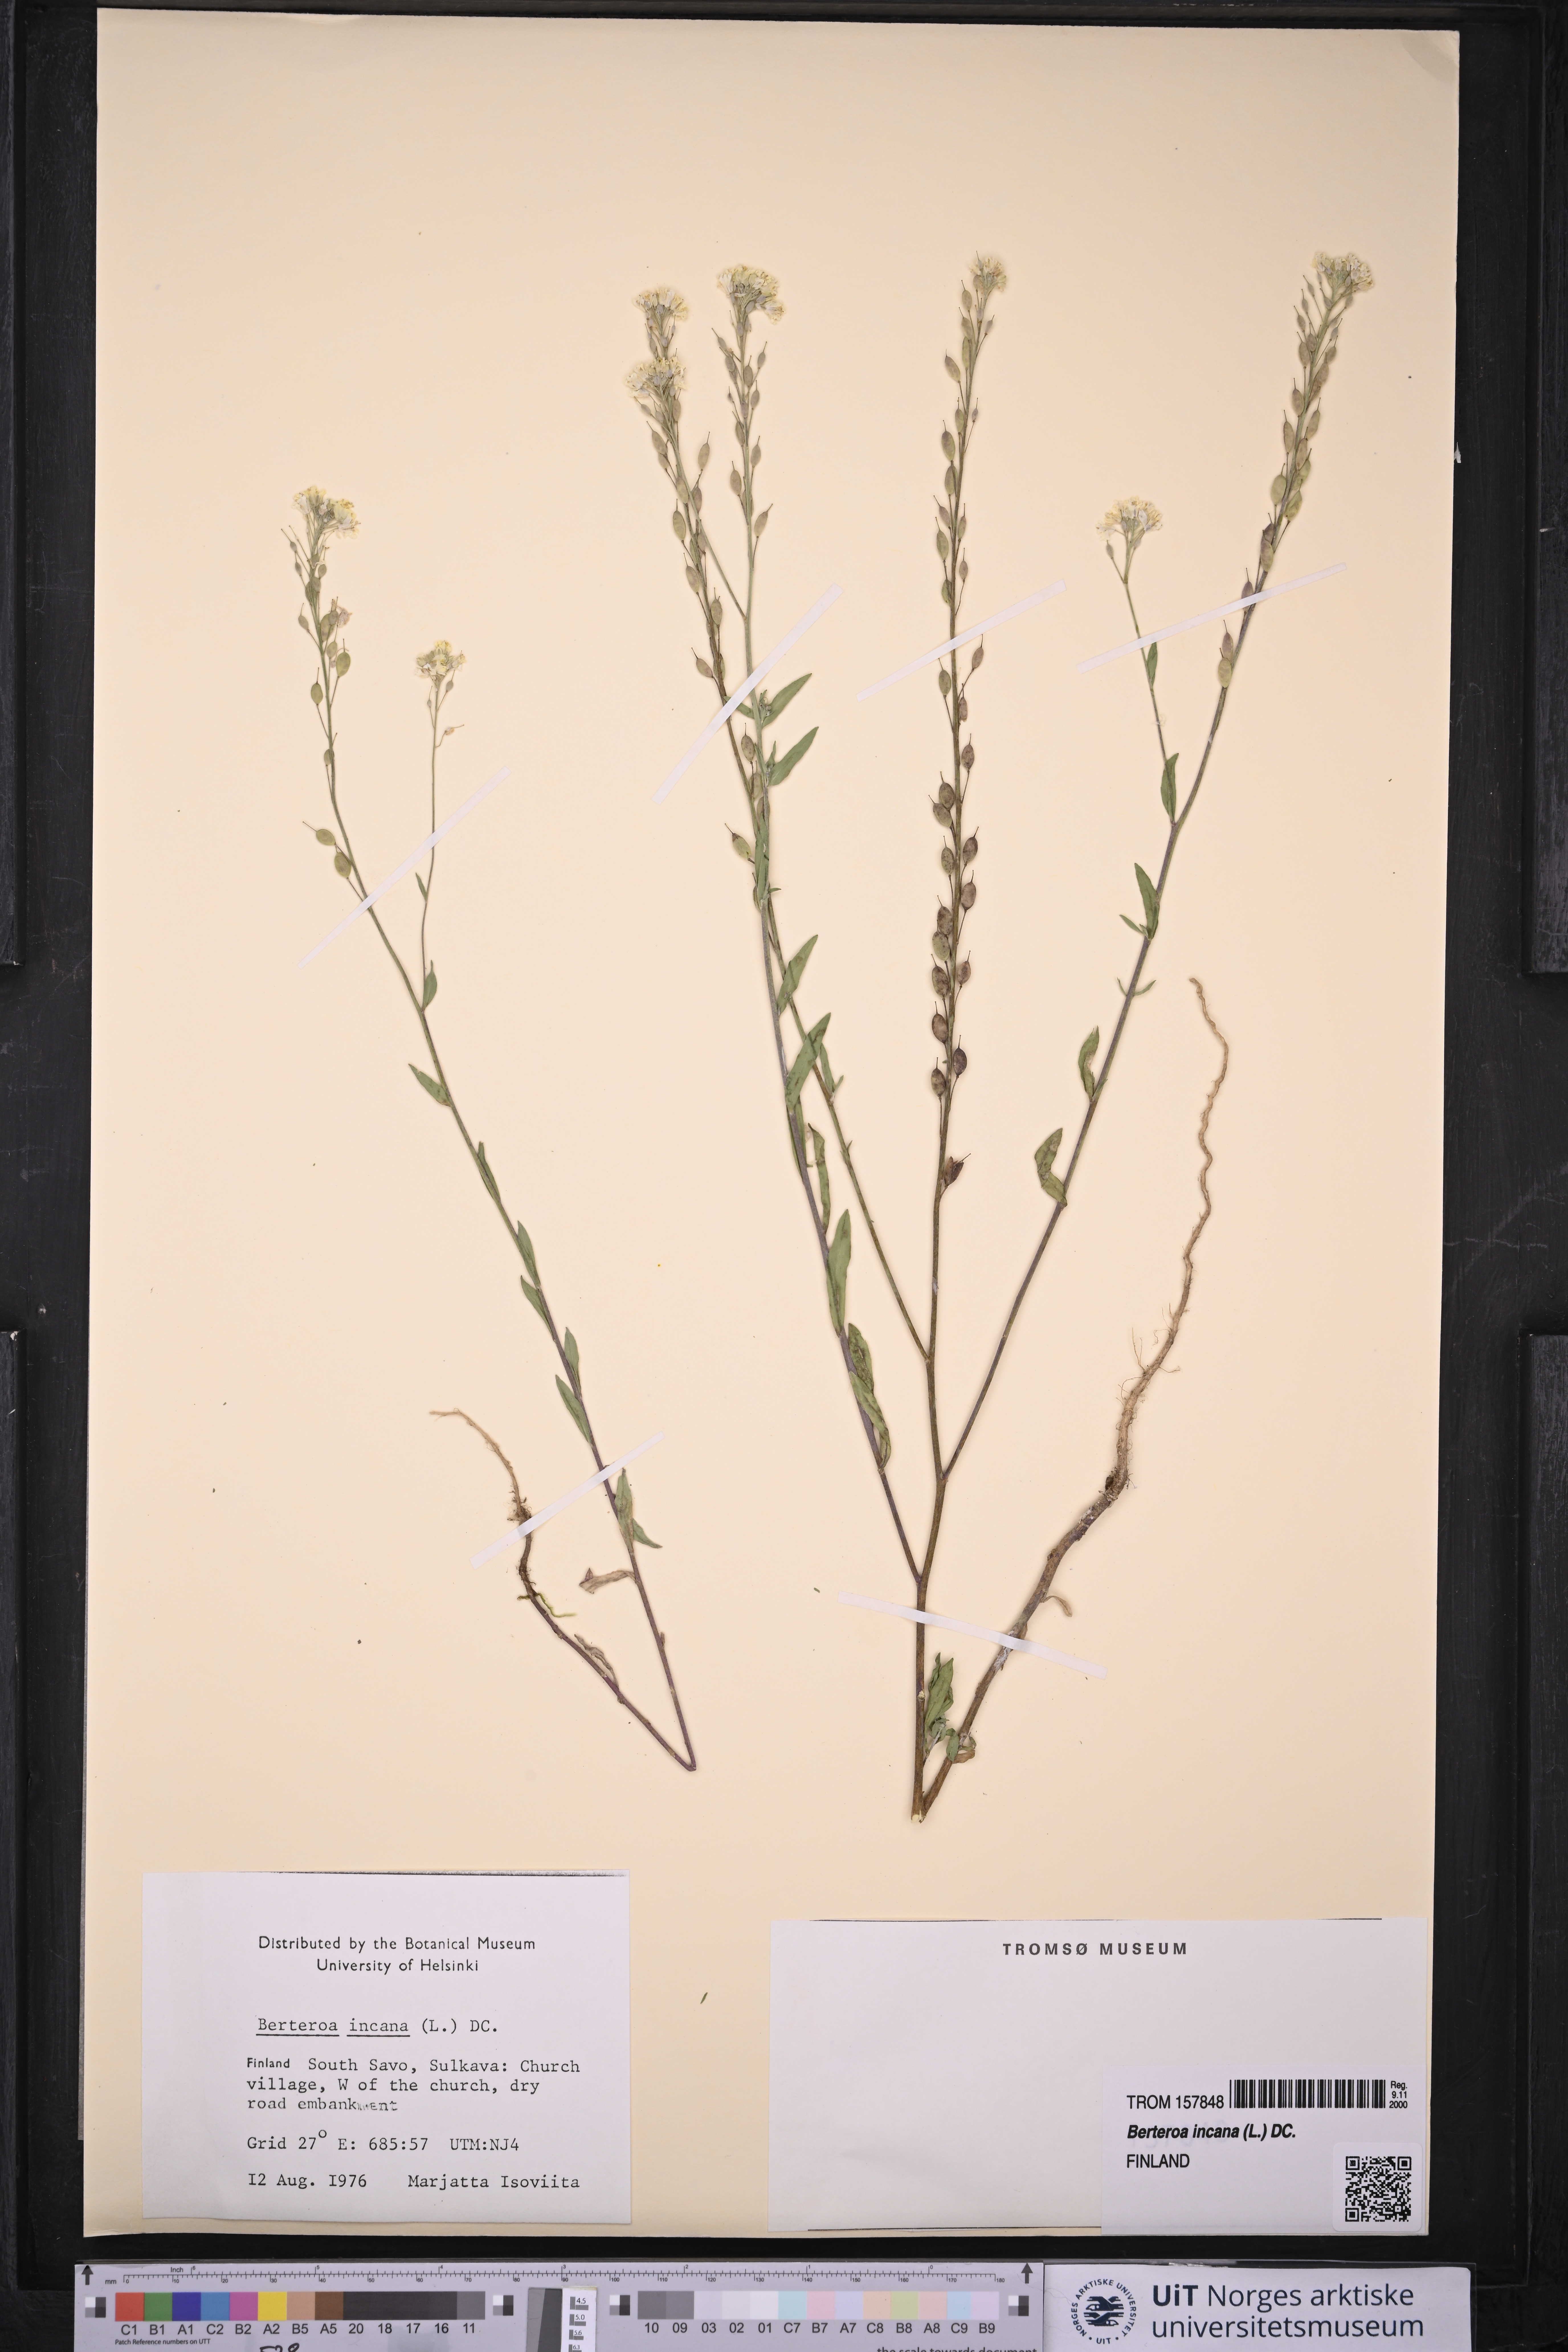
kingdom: Plantae
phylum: Tracheophyta
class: Magnoliopsida
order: Brassicales
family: Brassicaceae
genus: Berteroa
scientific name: Berteroa incana
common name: Hoary alison
